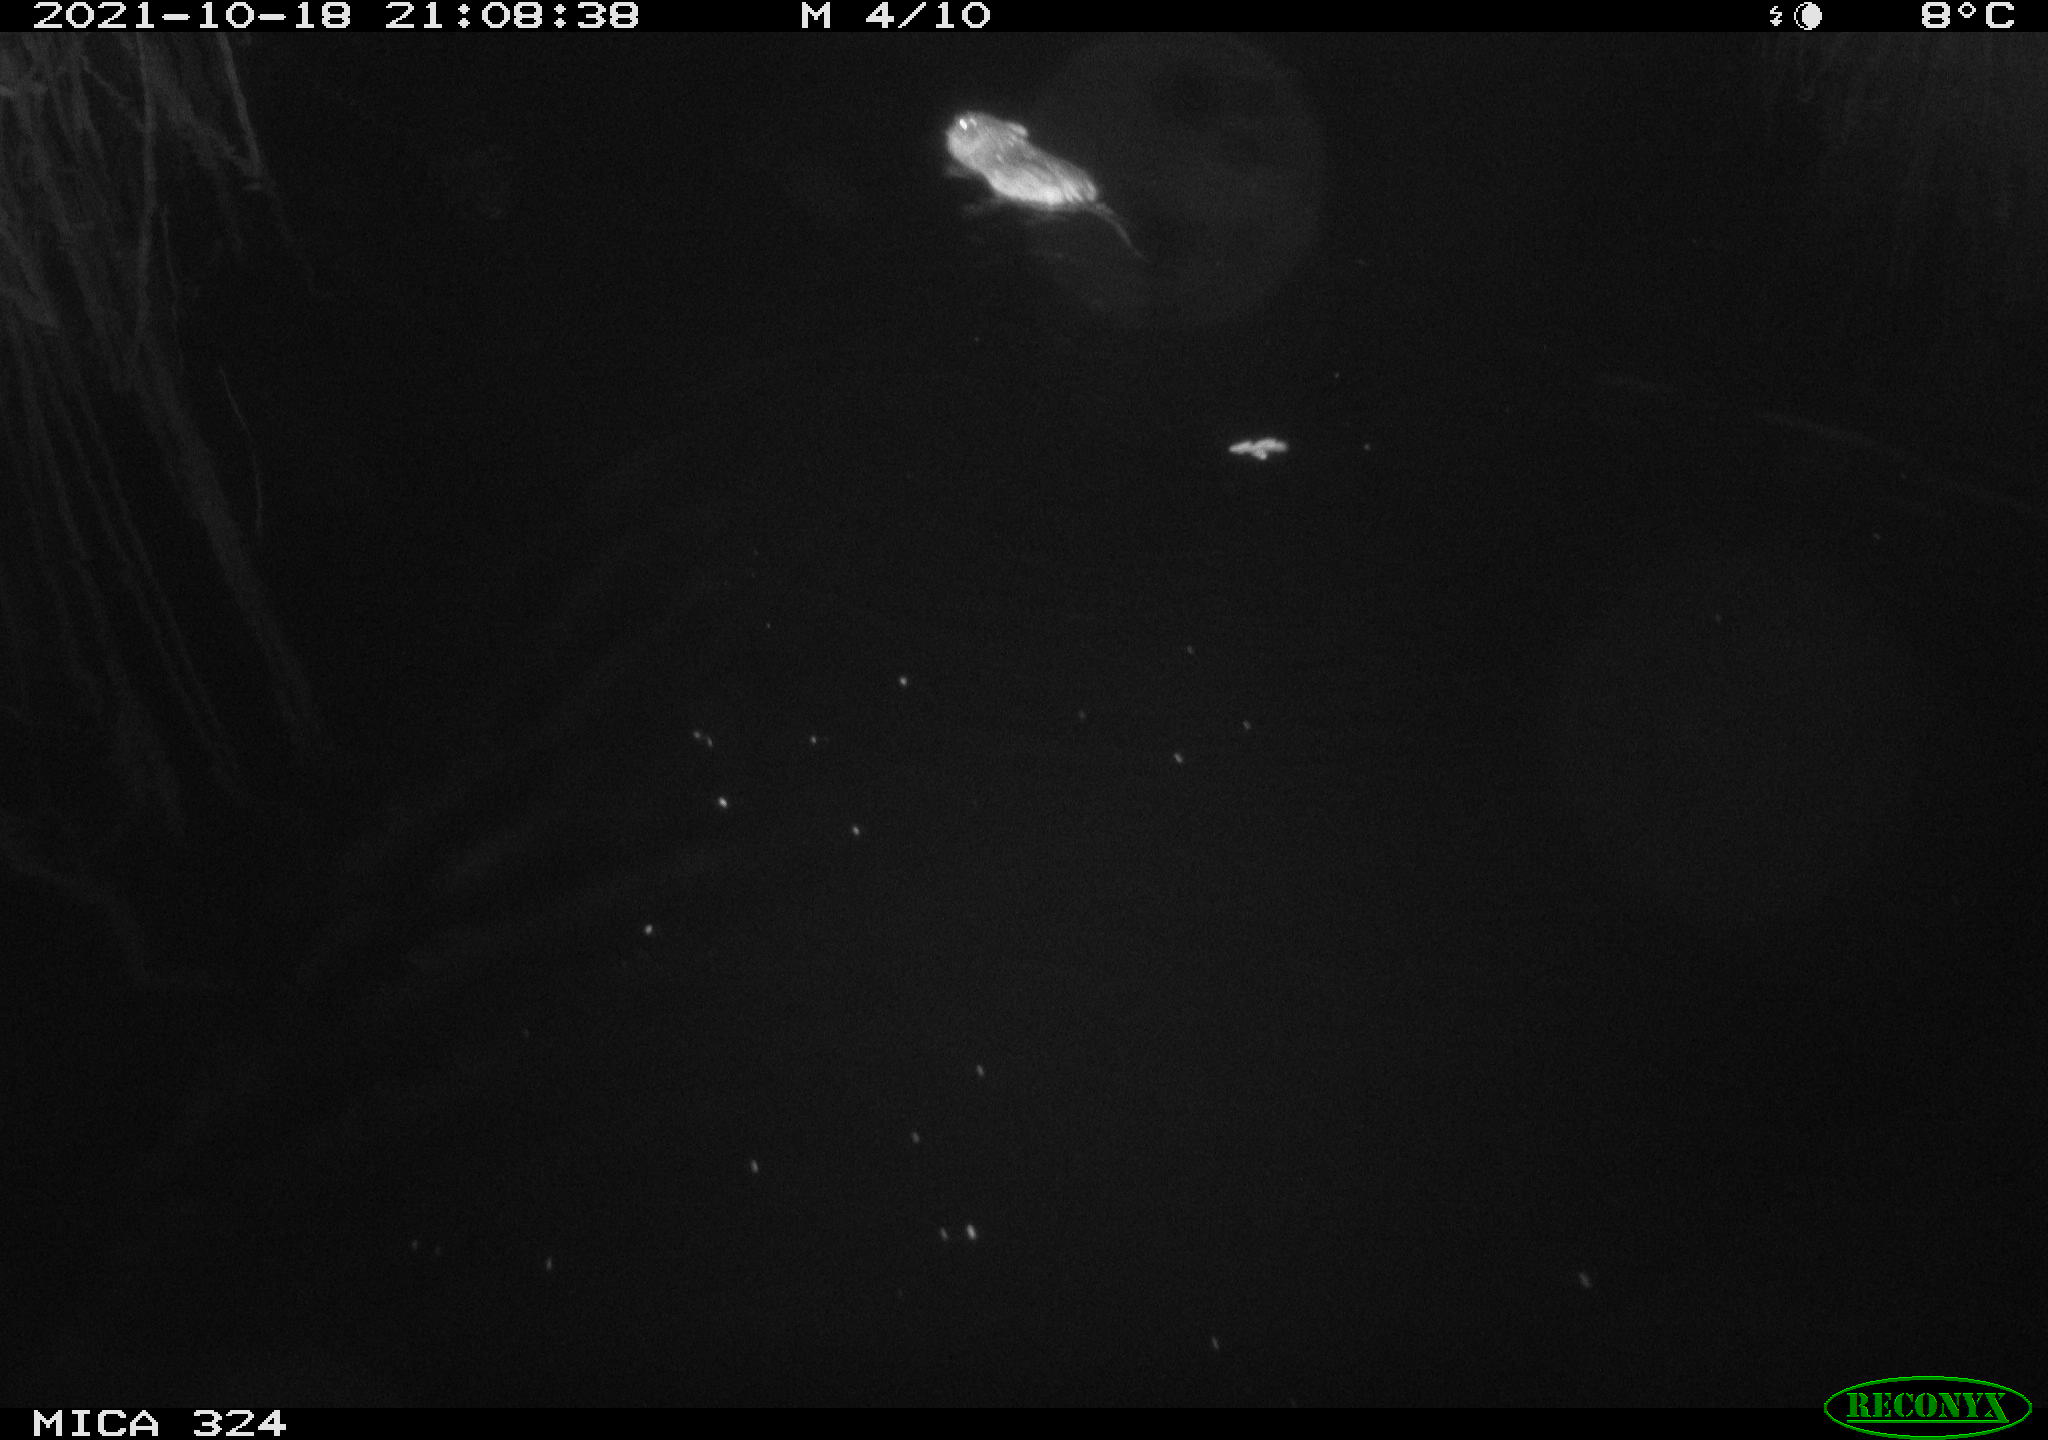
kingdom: Animalia
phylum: Chordata
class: Mammalia
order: Rodentia
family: Cricetidae
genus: Ondatra
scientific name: Ondatra zibethicus
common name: Muskrat
